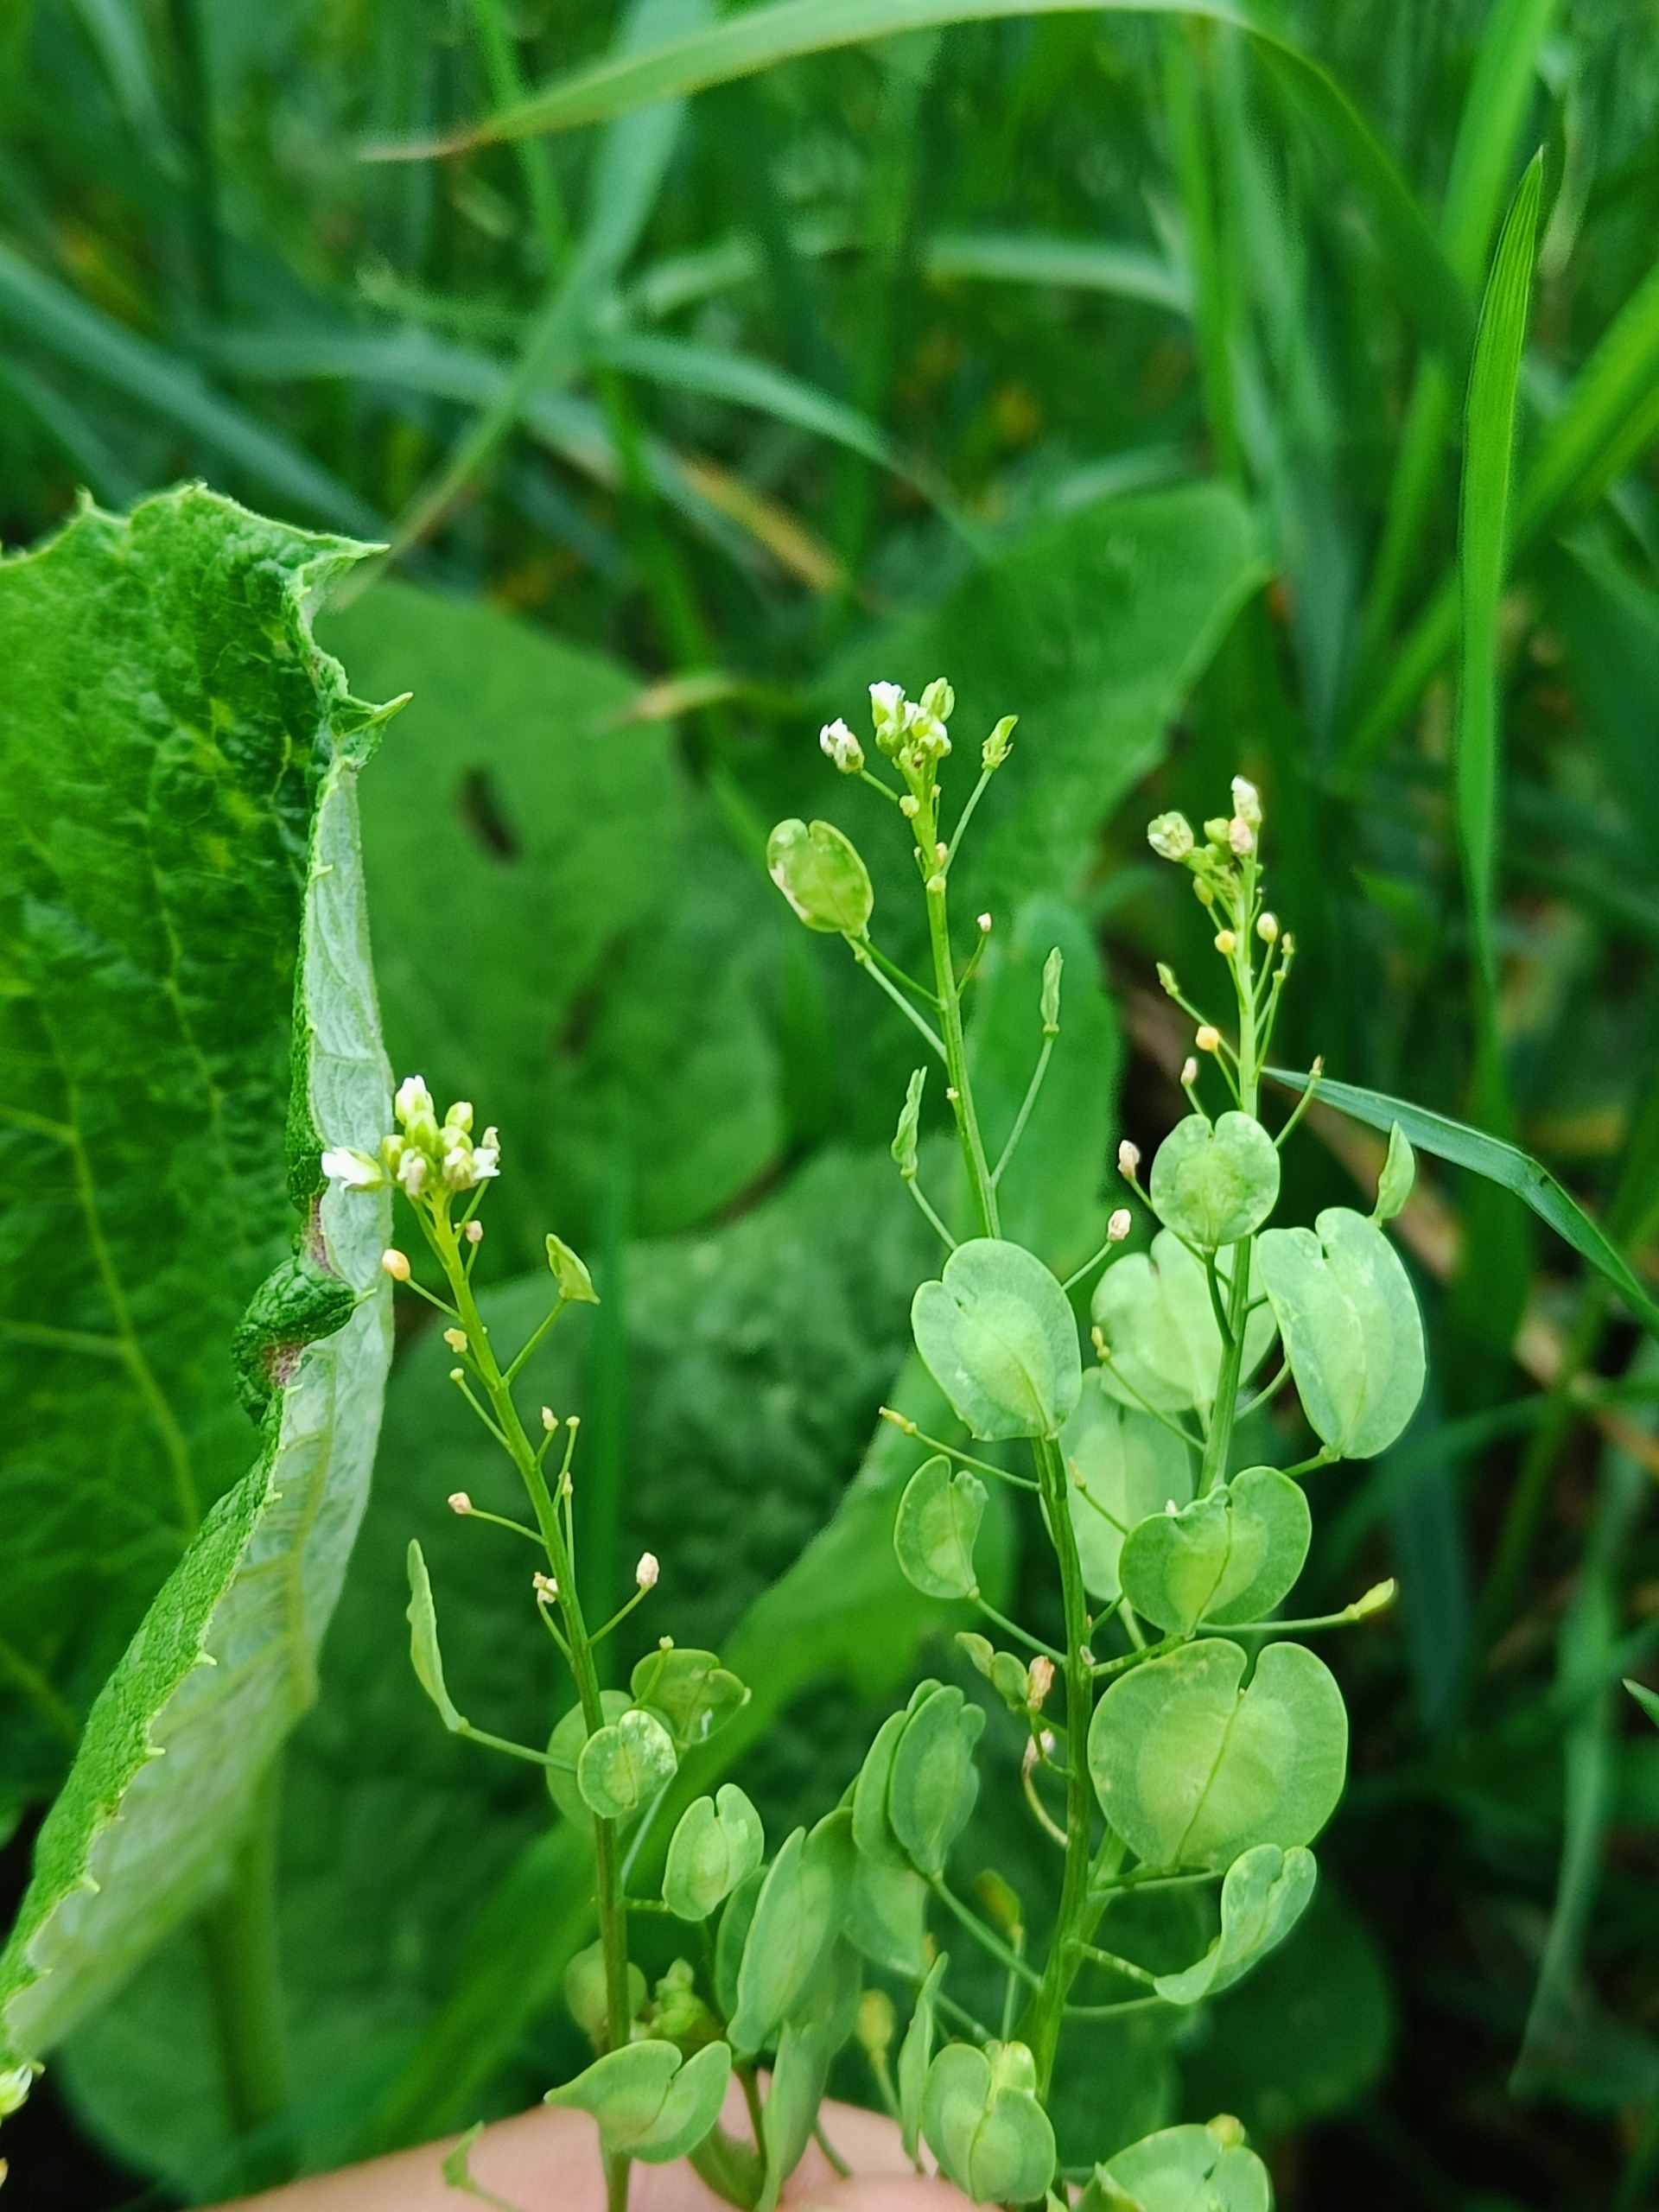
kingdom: Plantae
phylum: Tracheophyta
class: Magnoliopsida
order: Brassicales
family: Brassicaceae
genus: Thlaspi
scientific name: Thlaspi arvense
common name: Almindelig pengeurt
